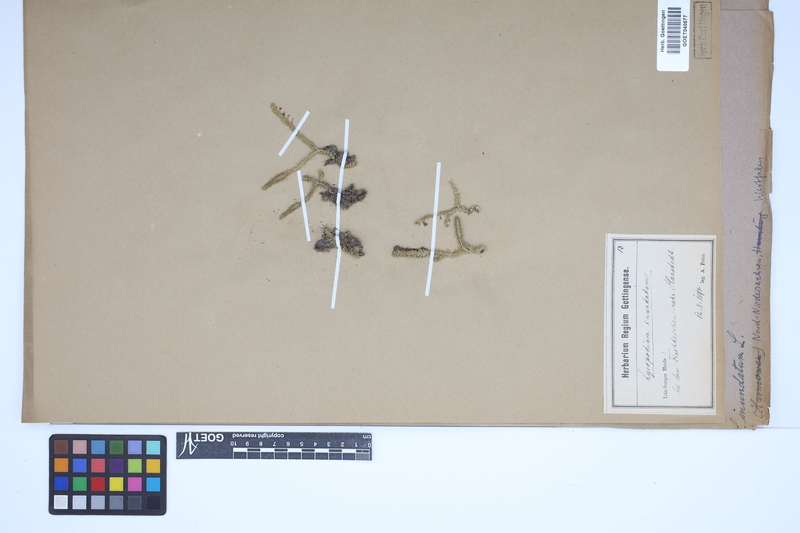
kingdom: Plantae
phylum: Tracheophyta
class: Lycopodiopsida
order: Lycopodiales
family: Lycopodiaceae
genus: Lycopodiella
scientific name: Lycopodiella inundata
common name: Marsh clubmoss
